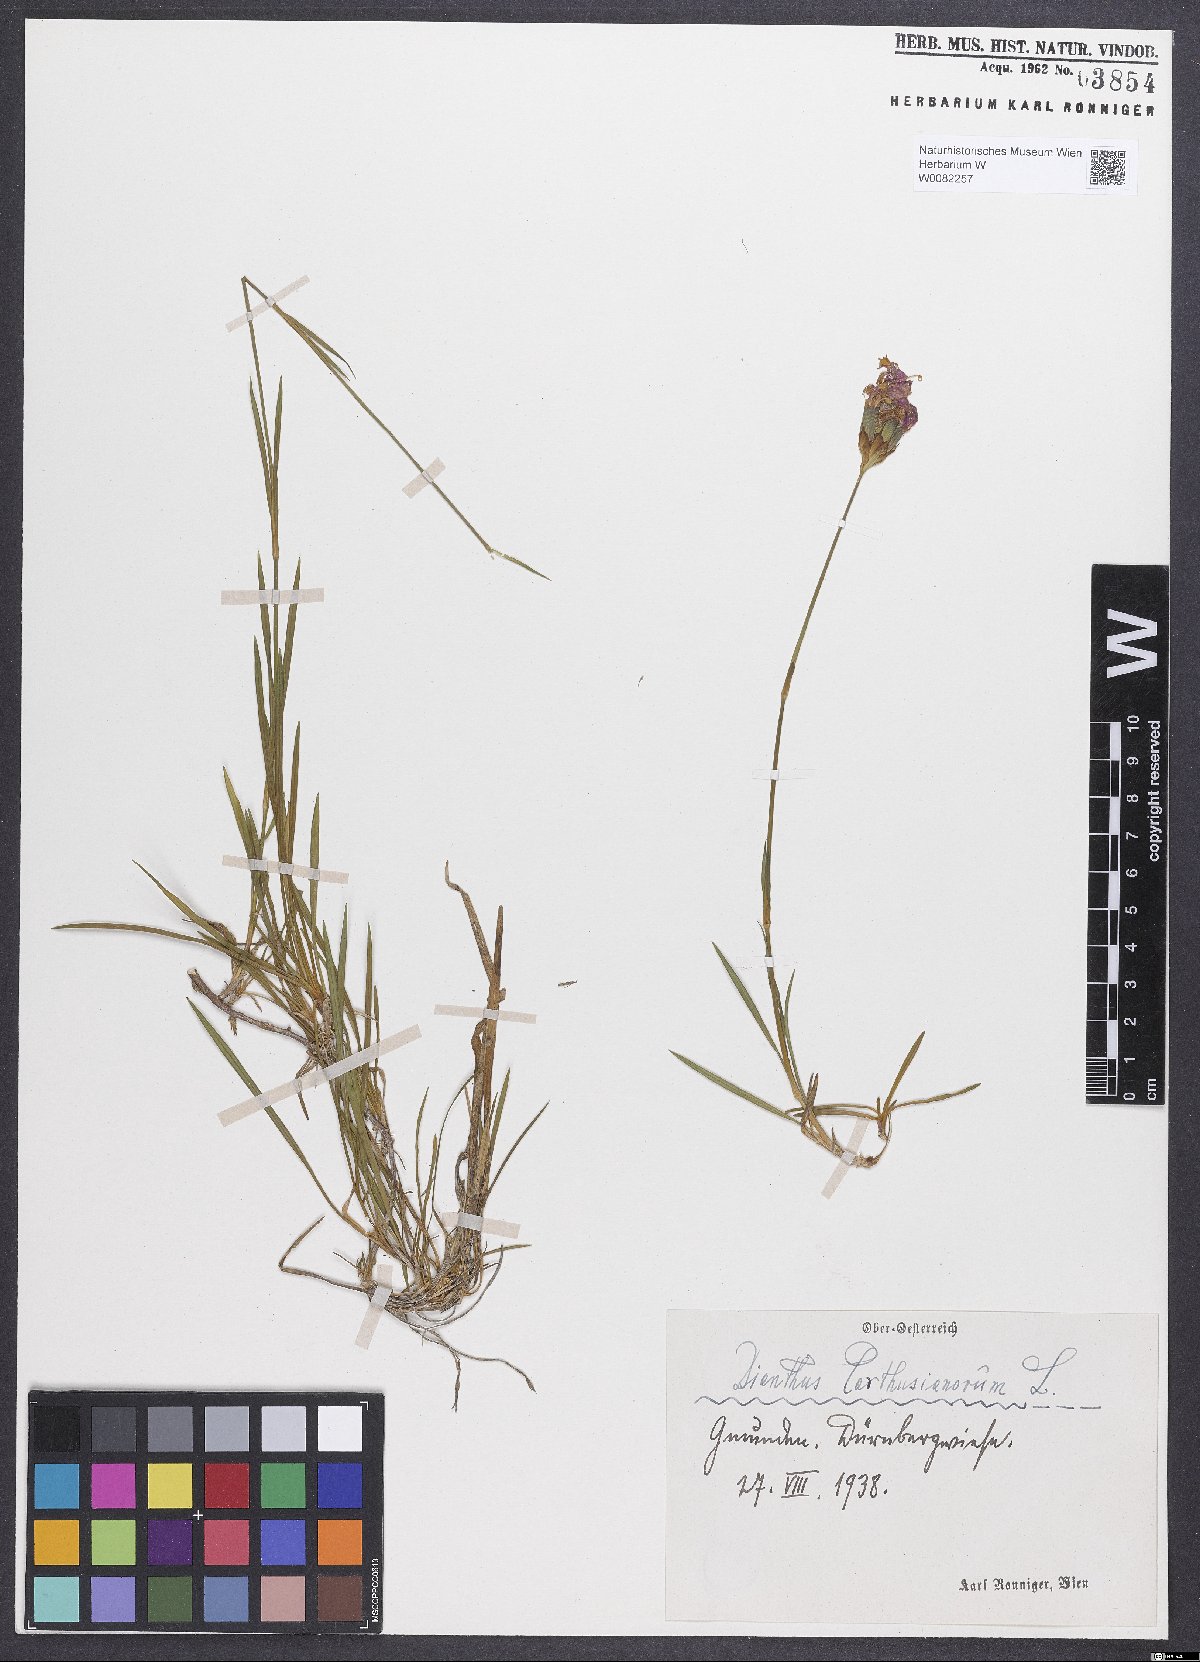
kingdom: Plantae
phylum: Tracheophyta
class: Magnoliopsida
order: Caryophyllales
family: Caryophyllaceae
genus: Dianthus
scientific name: Dianthus carthusianorum
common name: Carthusian pink
